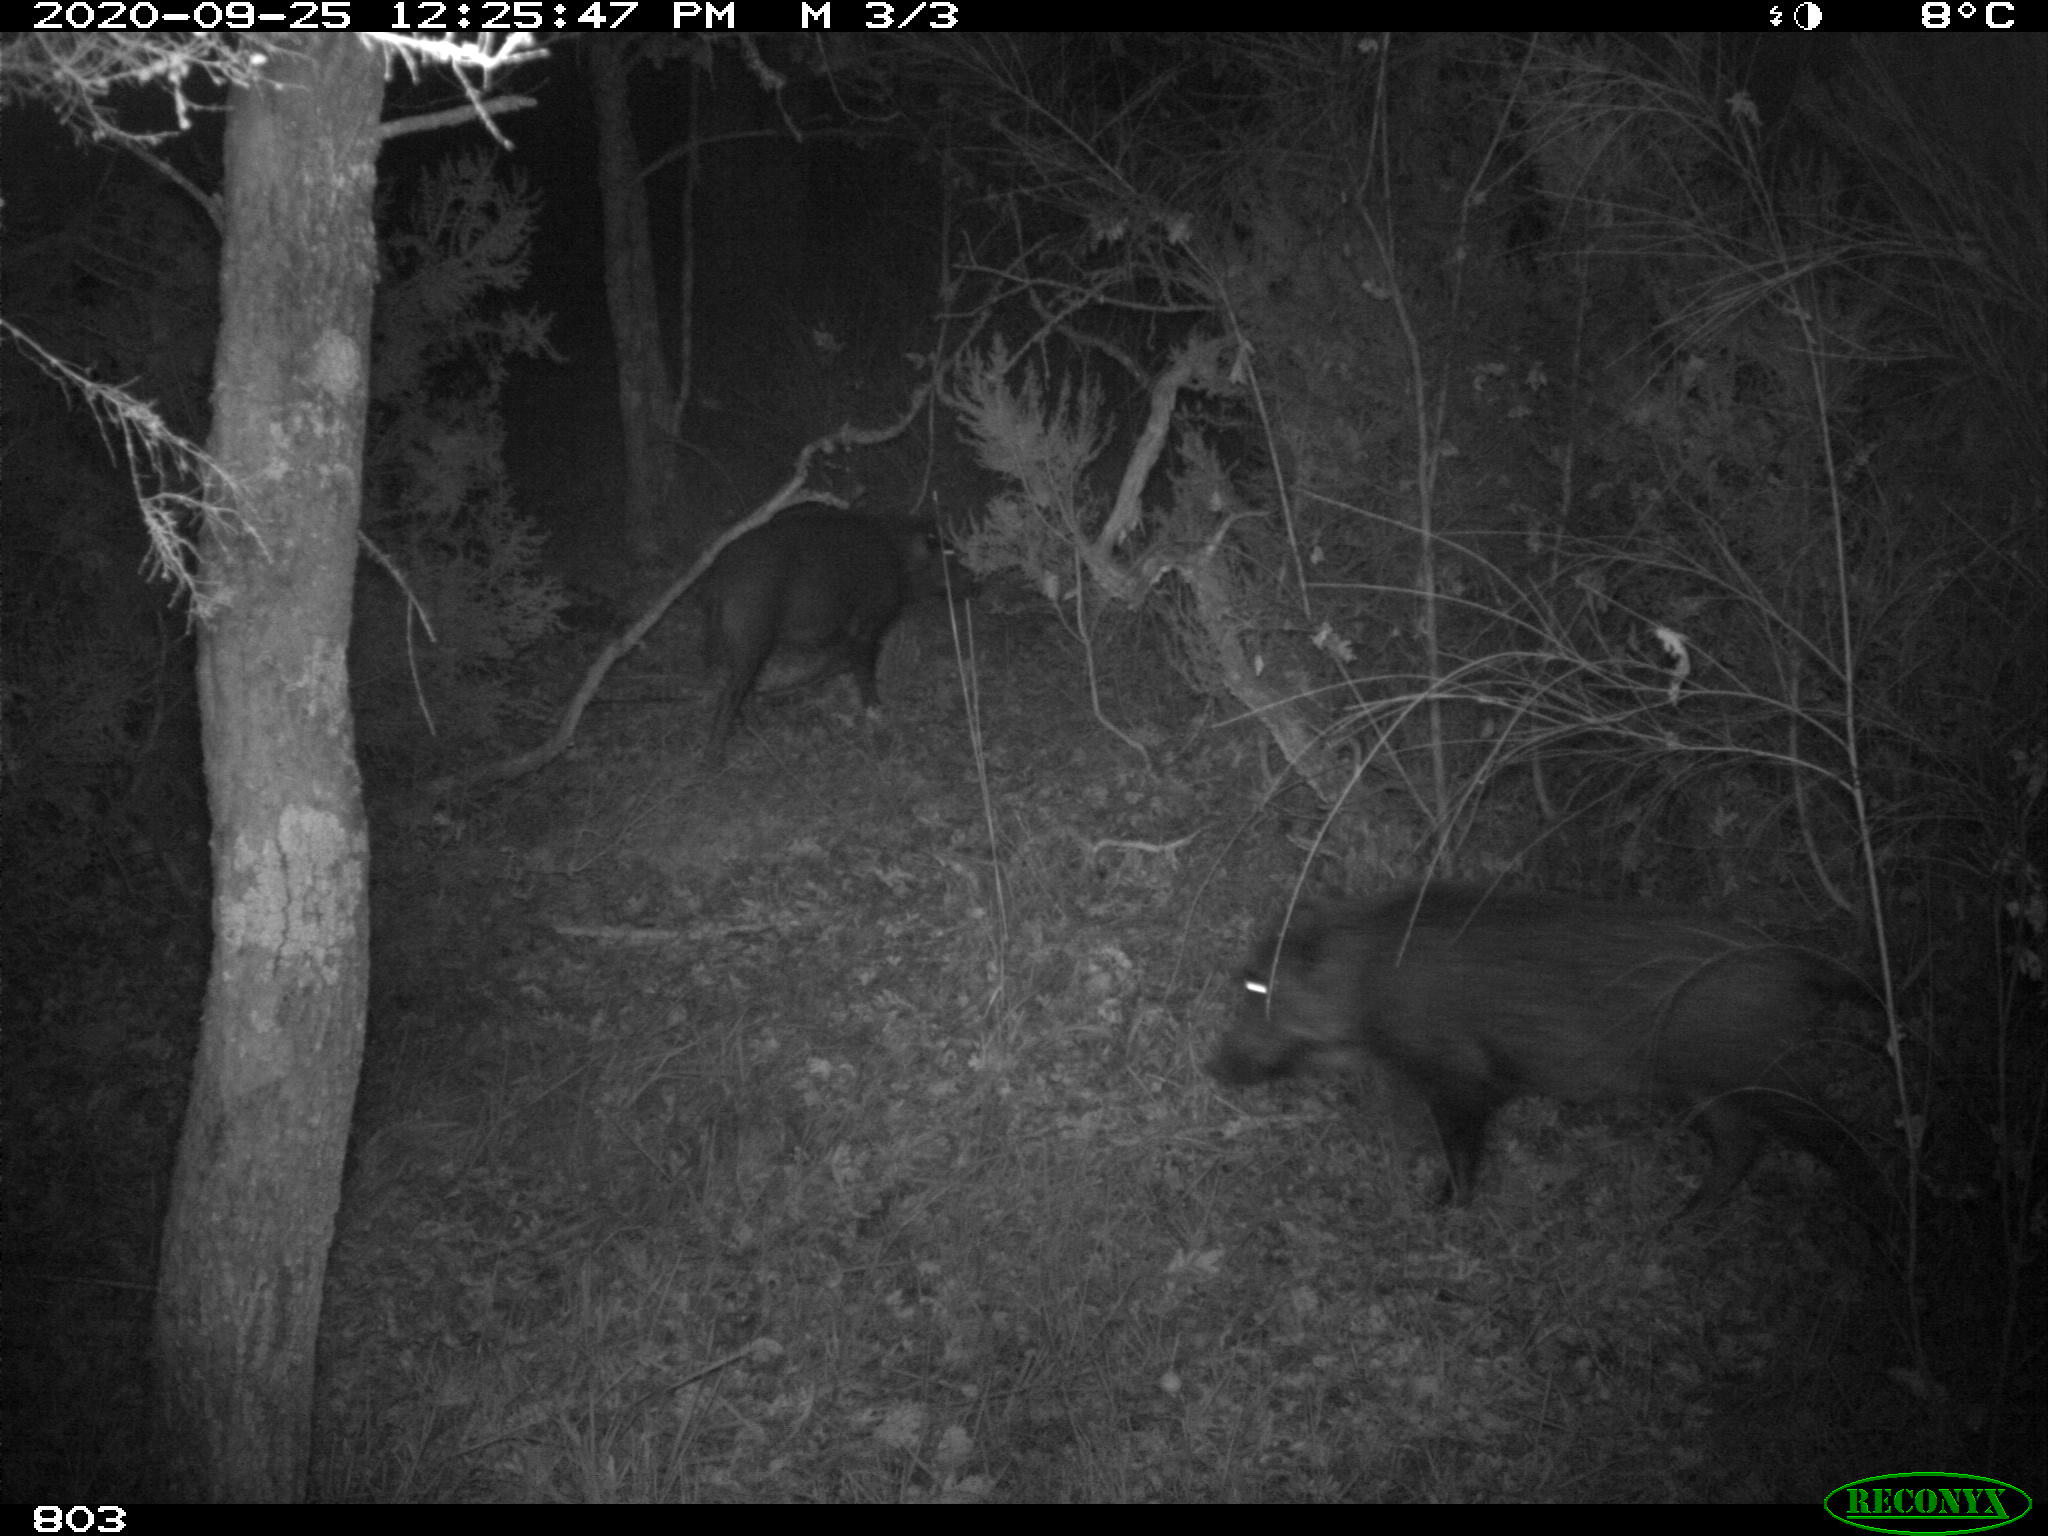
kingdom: Animalia
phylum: Chordata
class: Mammalia
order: Artiodactyla
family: Suidae
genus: Sus
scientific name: Sus scrofa
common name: Wild boar
